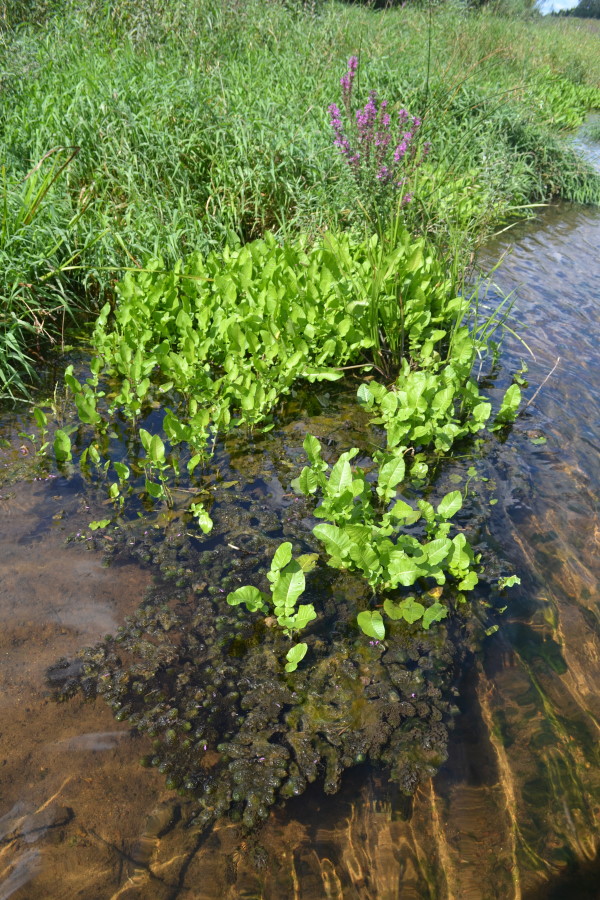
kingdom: Plantae
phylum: Tracheophyta
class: Magnoliopsida
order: Brassicales
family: Brassicaceae
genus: Rorippa
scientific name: Rorippa amphibia
